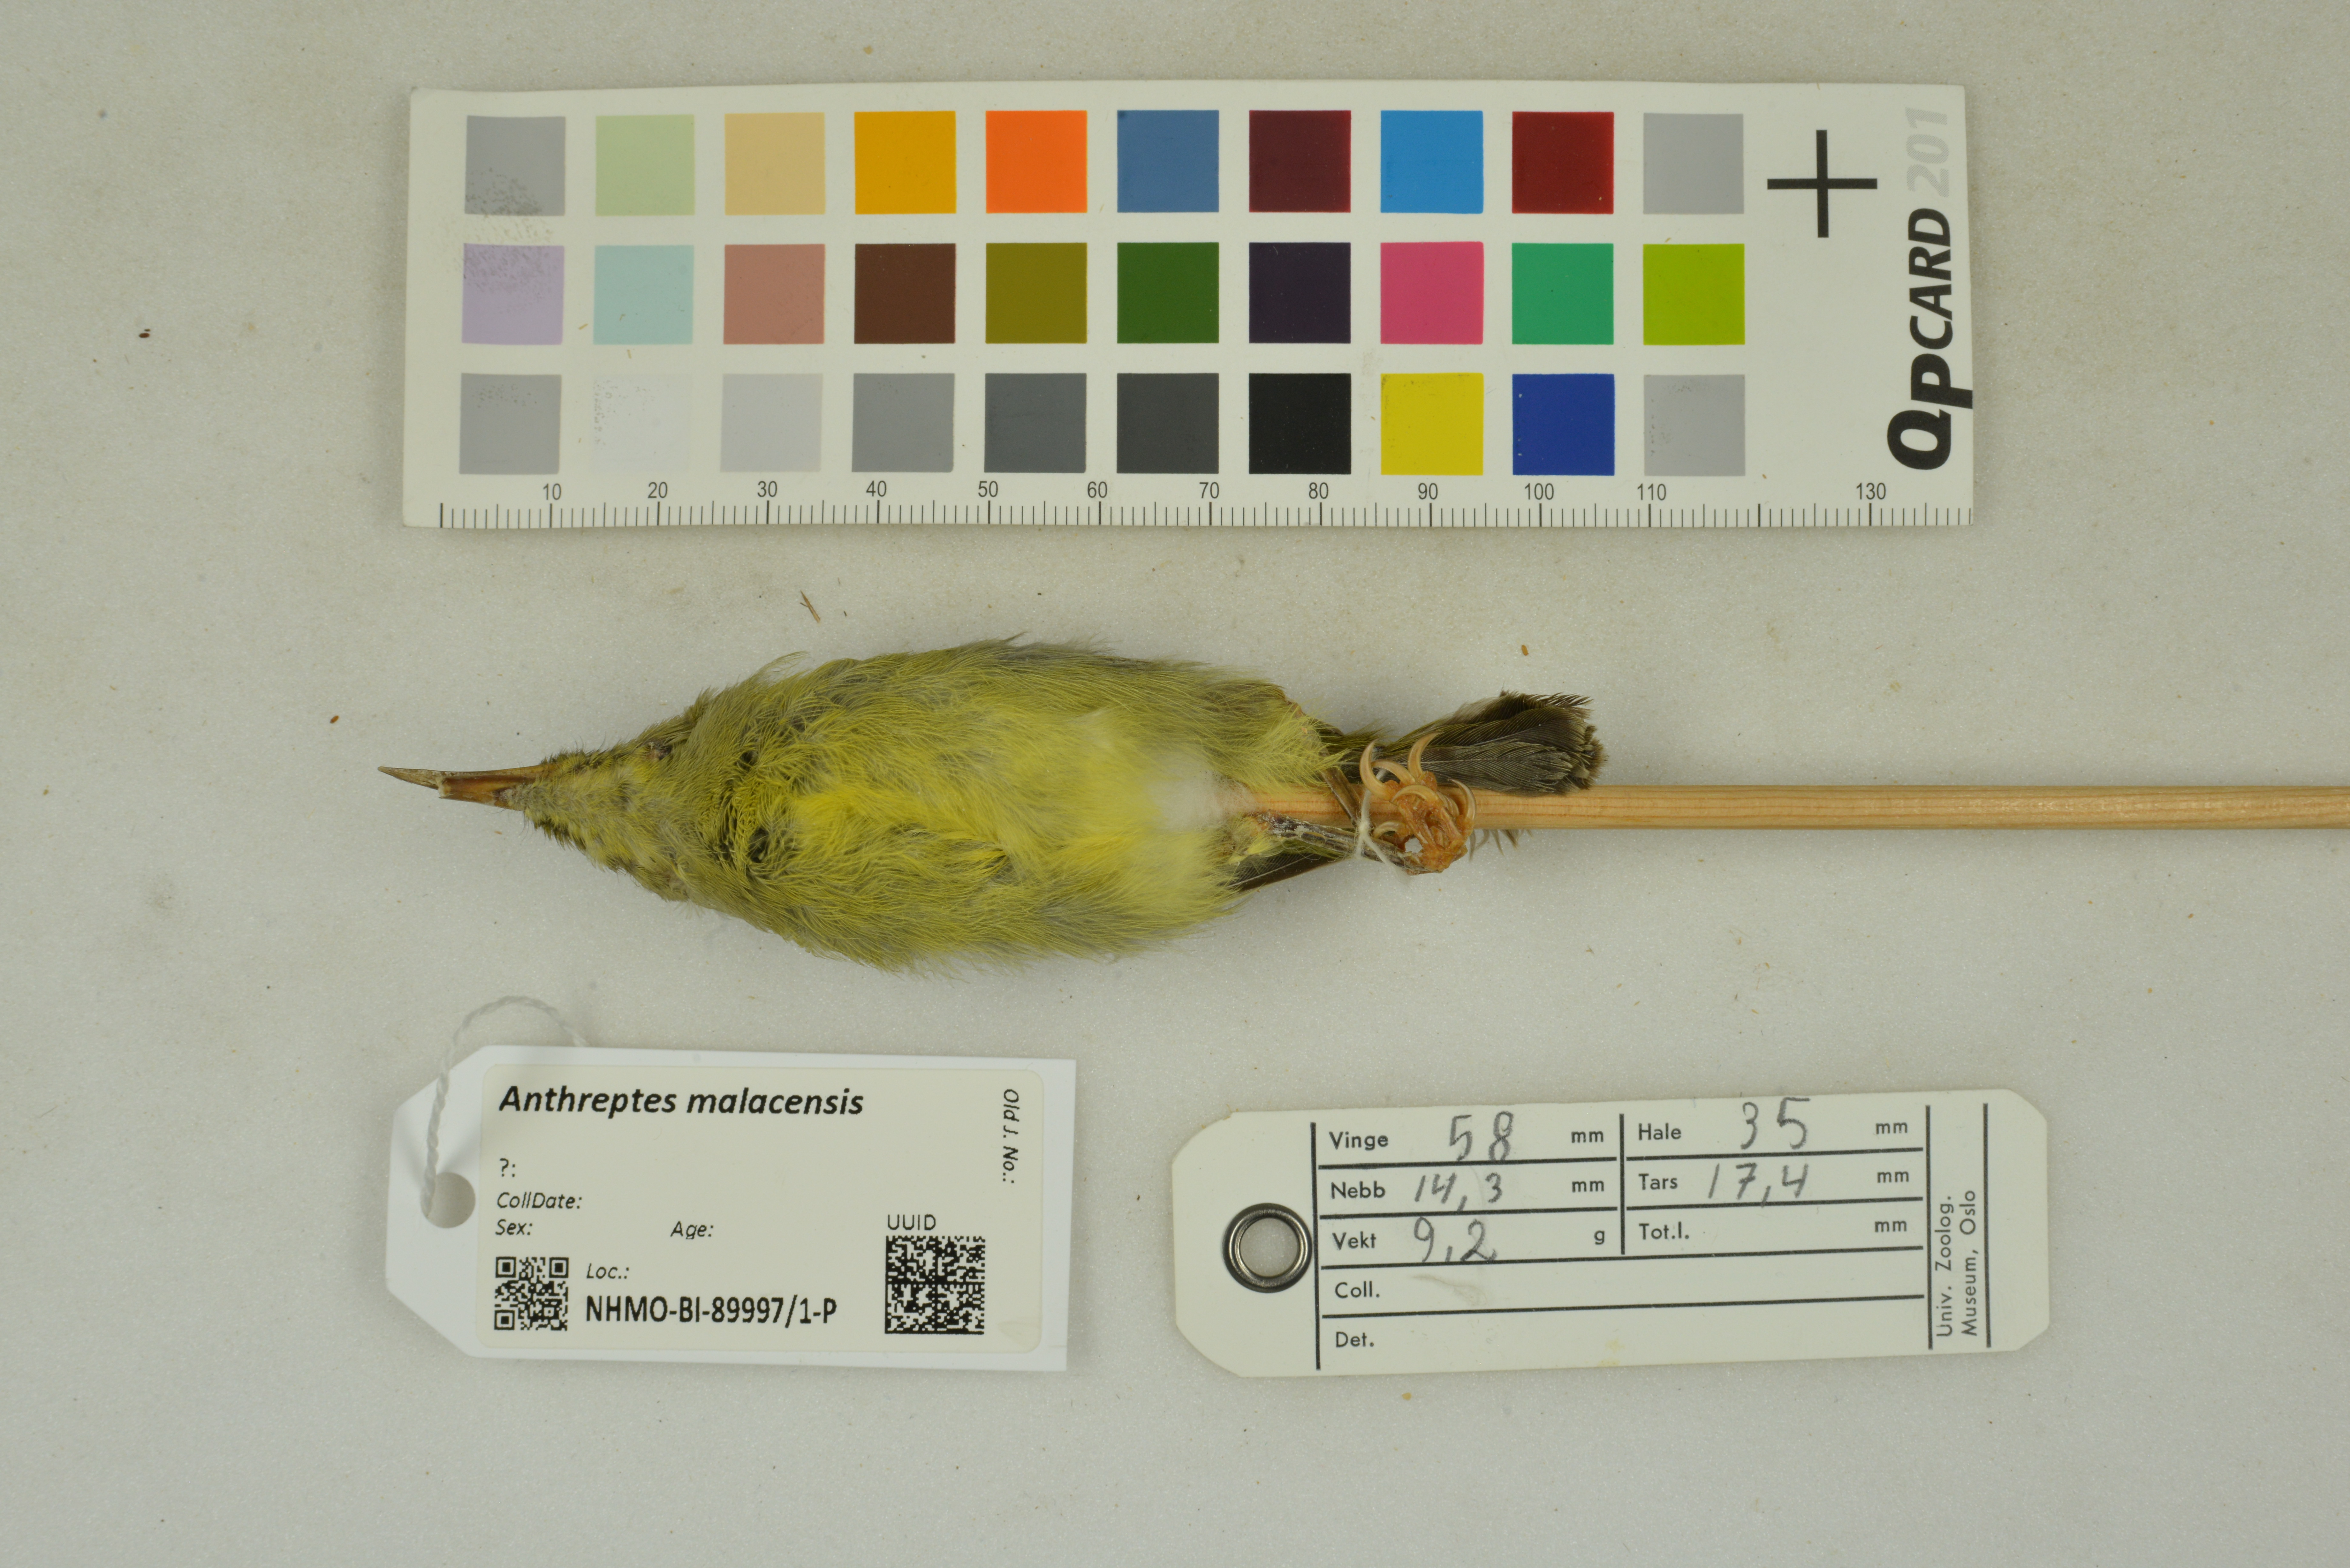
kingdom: Animalia
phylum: Chordata
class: Aves
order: Passeriformes
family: Nectariniidae
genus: Anthreptes
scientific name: Anthreptes malacensis
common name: Brown-throated sunbird
